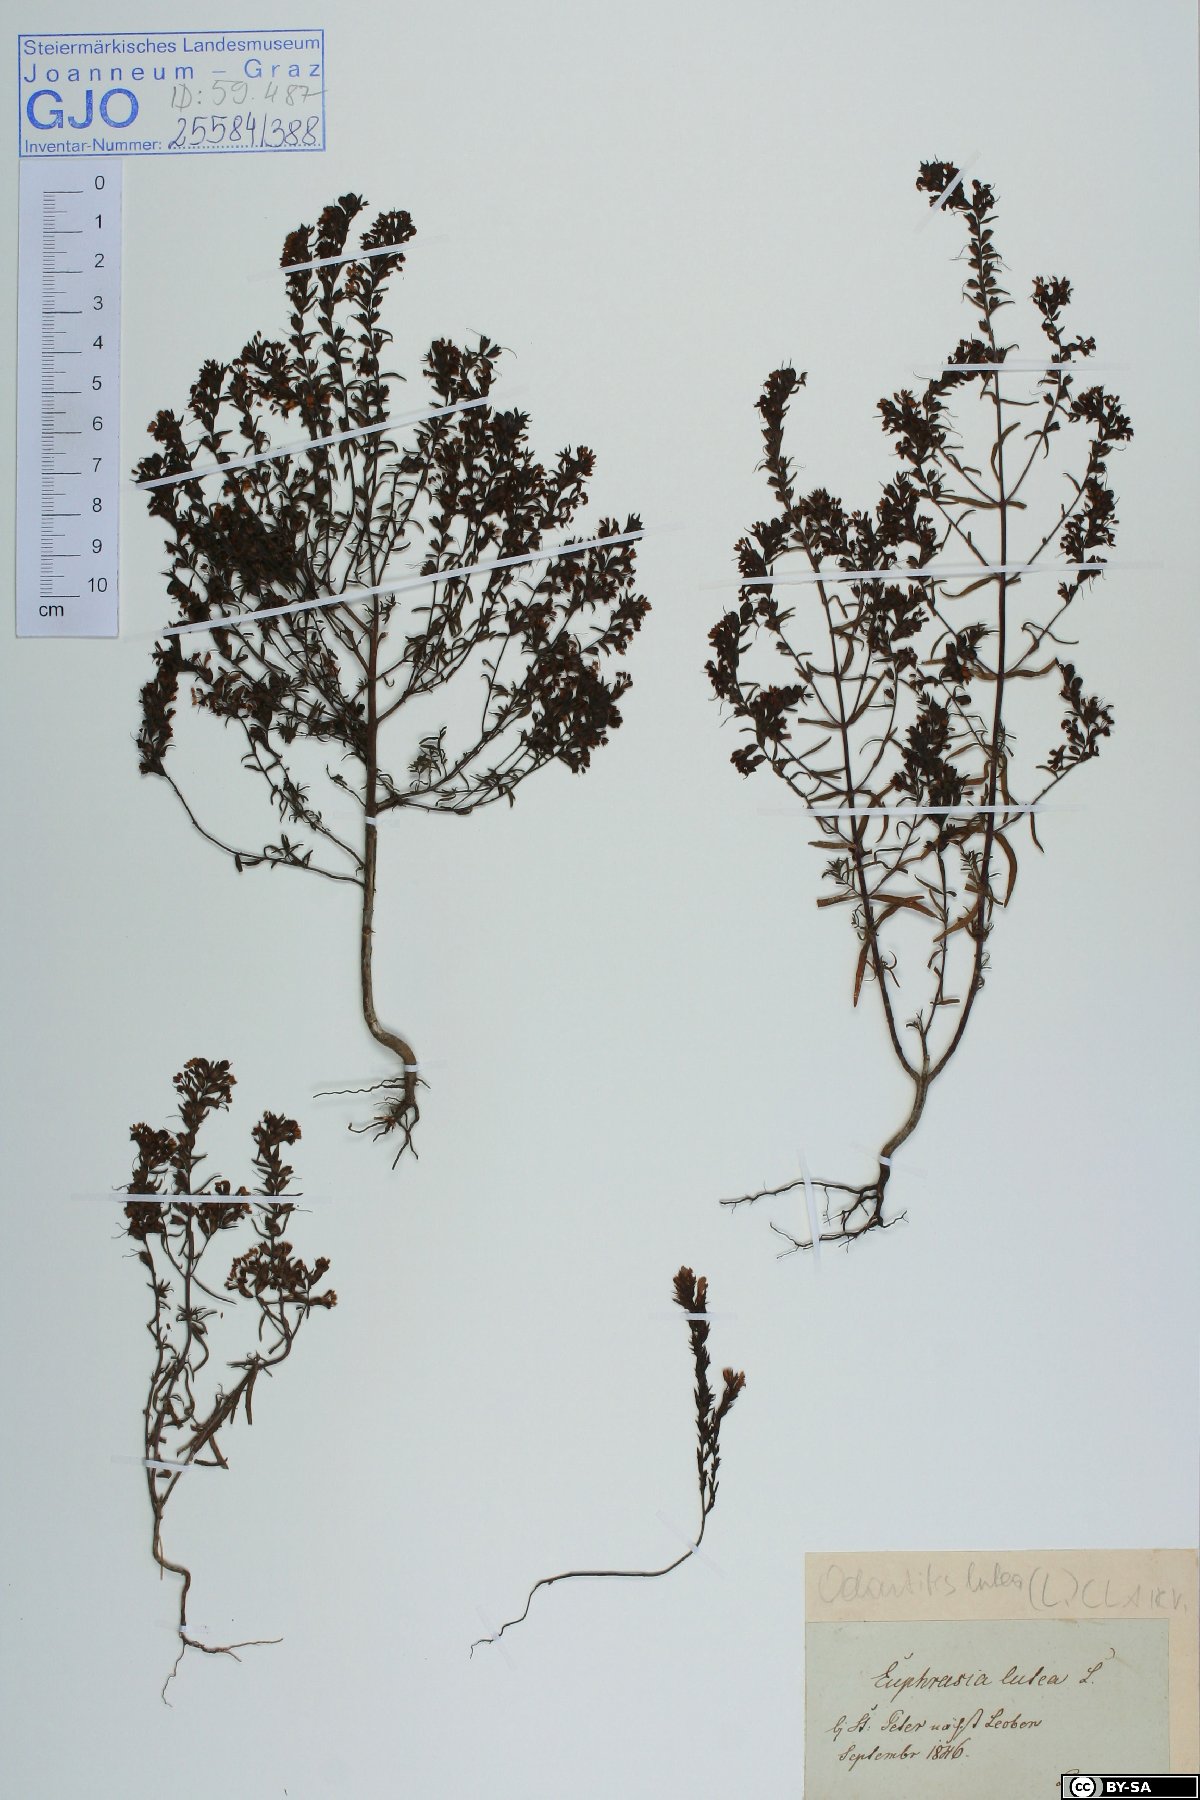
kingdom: Plantae
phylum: Tracheophyta
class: Magnoliopsida
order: Lamiales
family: Orobanchaceae
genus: Odontites
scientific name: Odontites luteus
